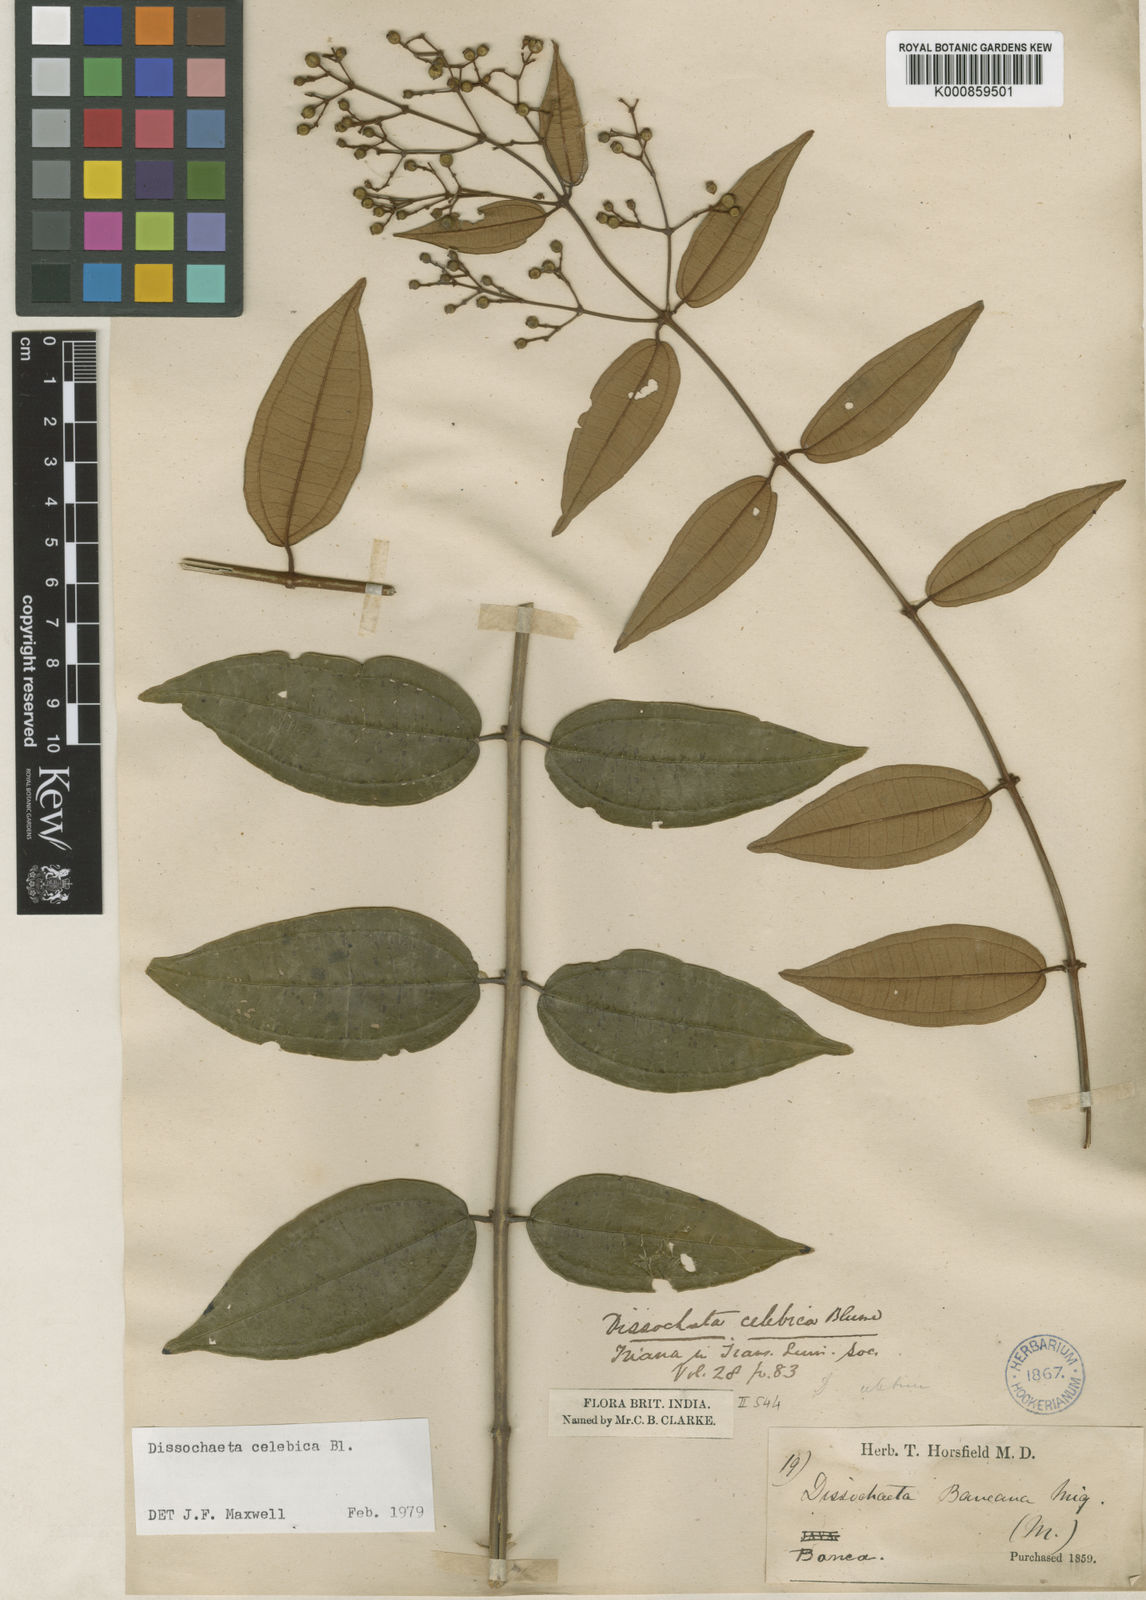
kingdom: Plantae
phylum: Tracheophyta
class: Magnoliopsida
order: Myrtales
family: Melastomataceae
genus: Dissochaeta
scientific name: Dissochaeta celebica
